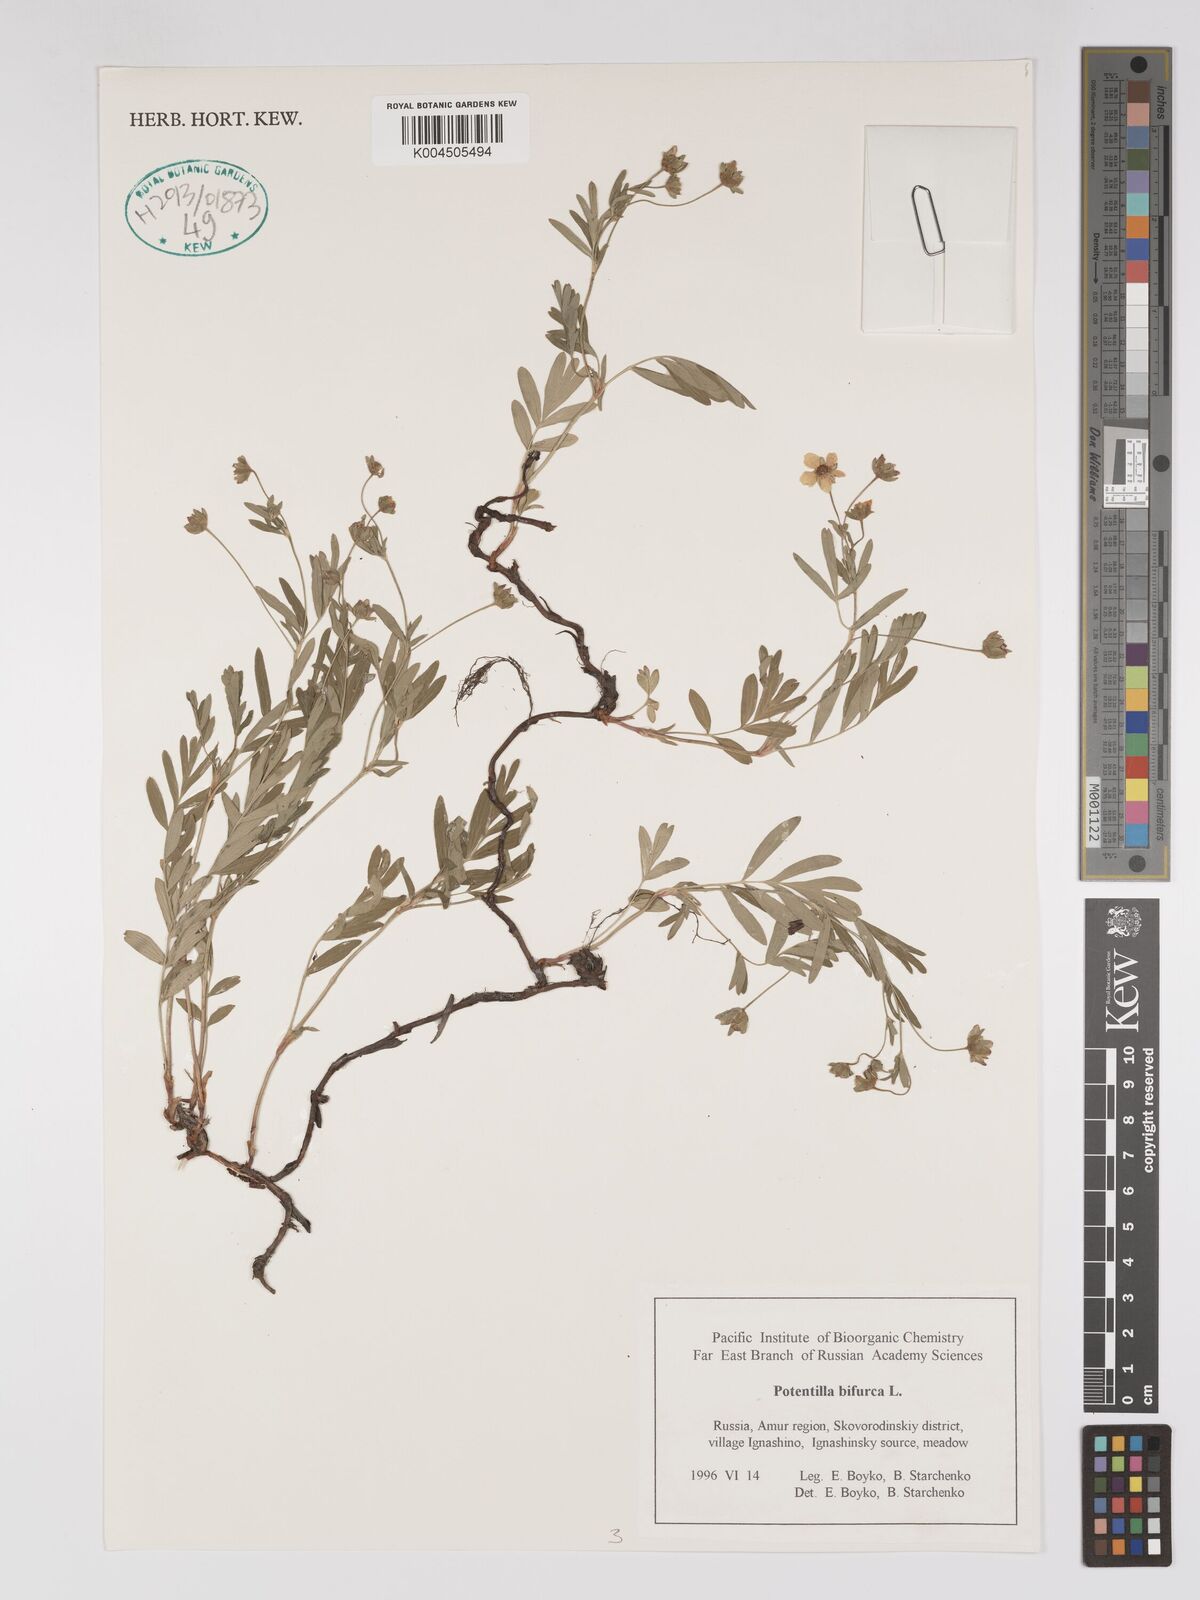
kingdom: Plantae
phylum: Tracheophyta
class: Magnoliopsida
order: Rosales
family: Rosaceae
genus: Sibbaldianthe
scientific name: Sibbaldianthe bifurca
